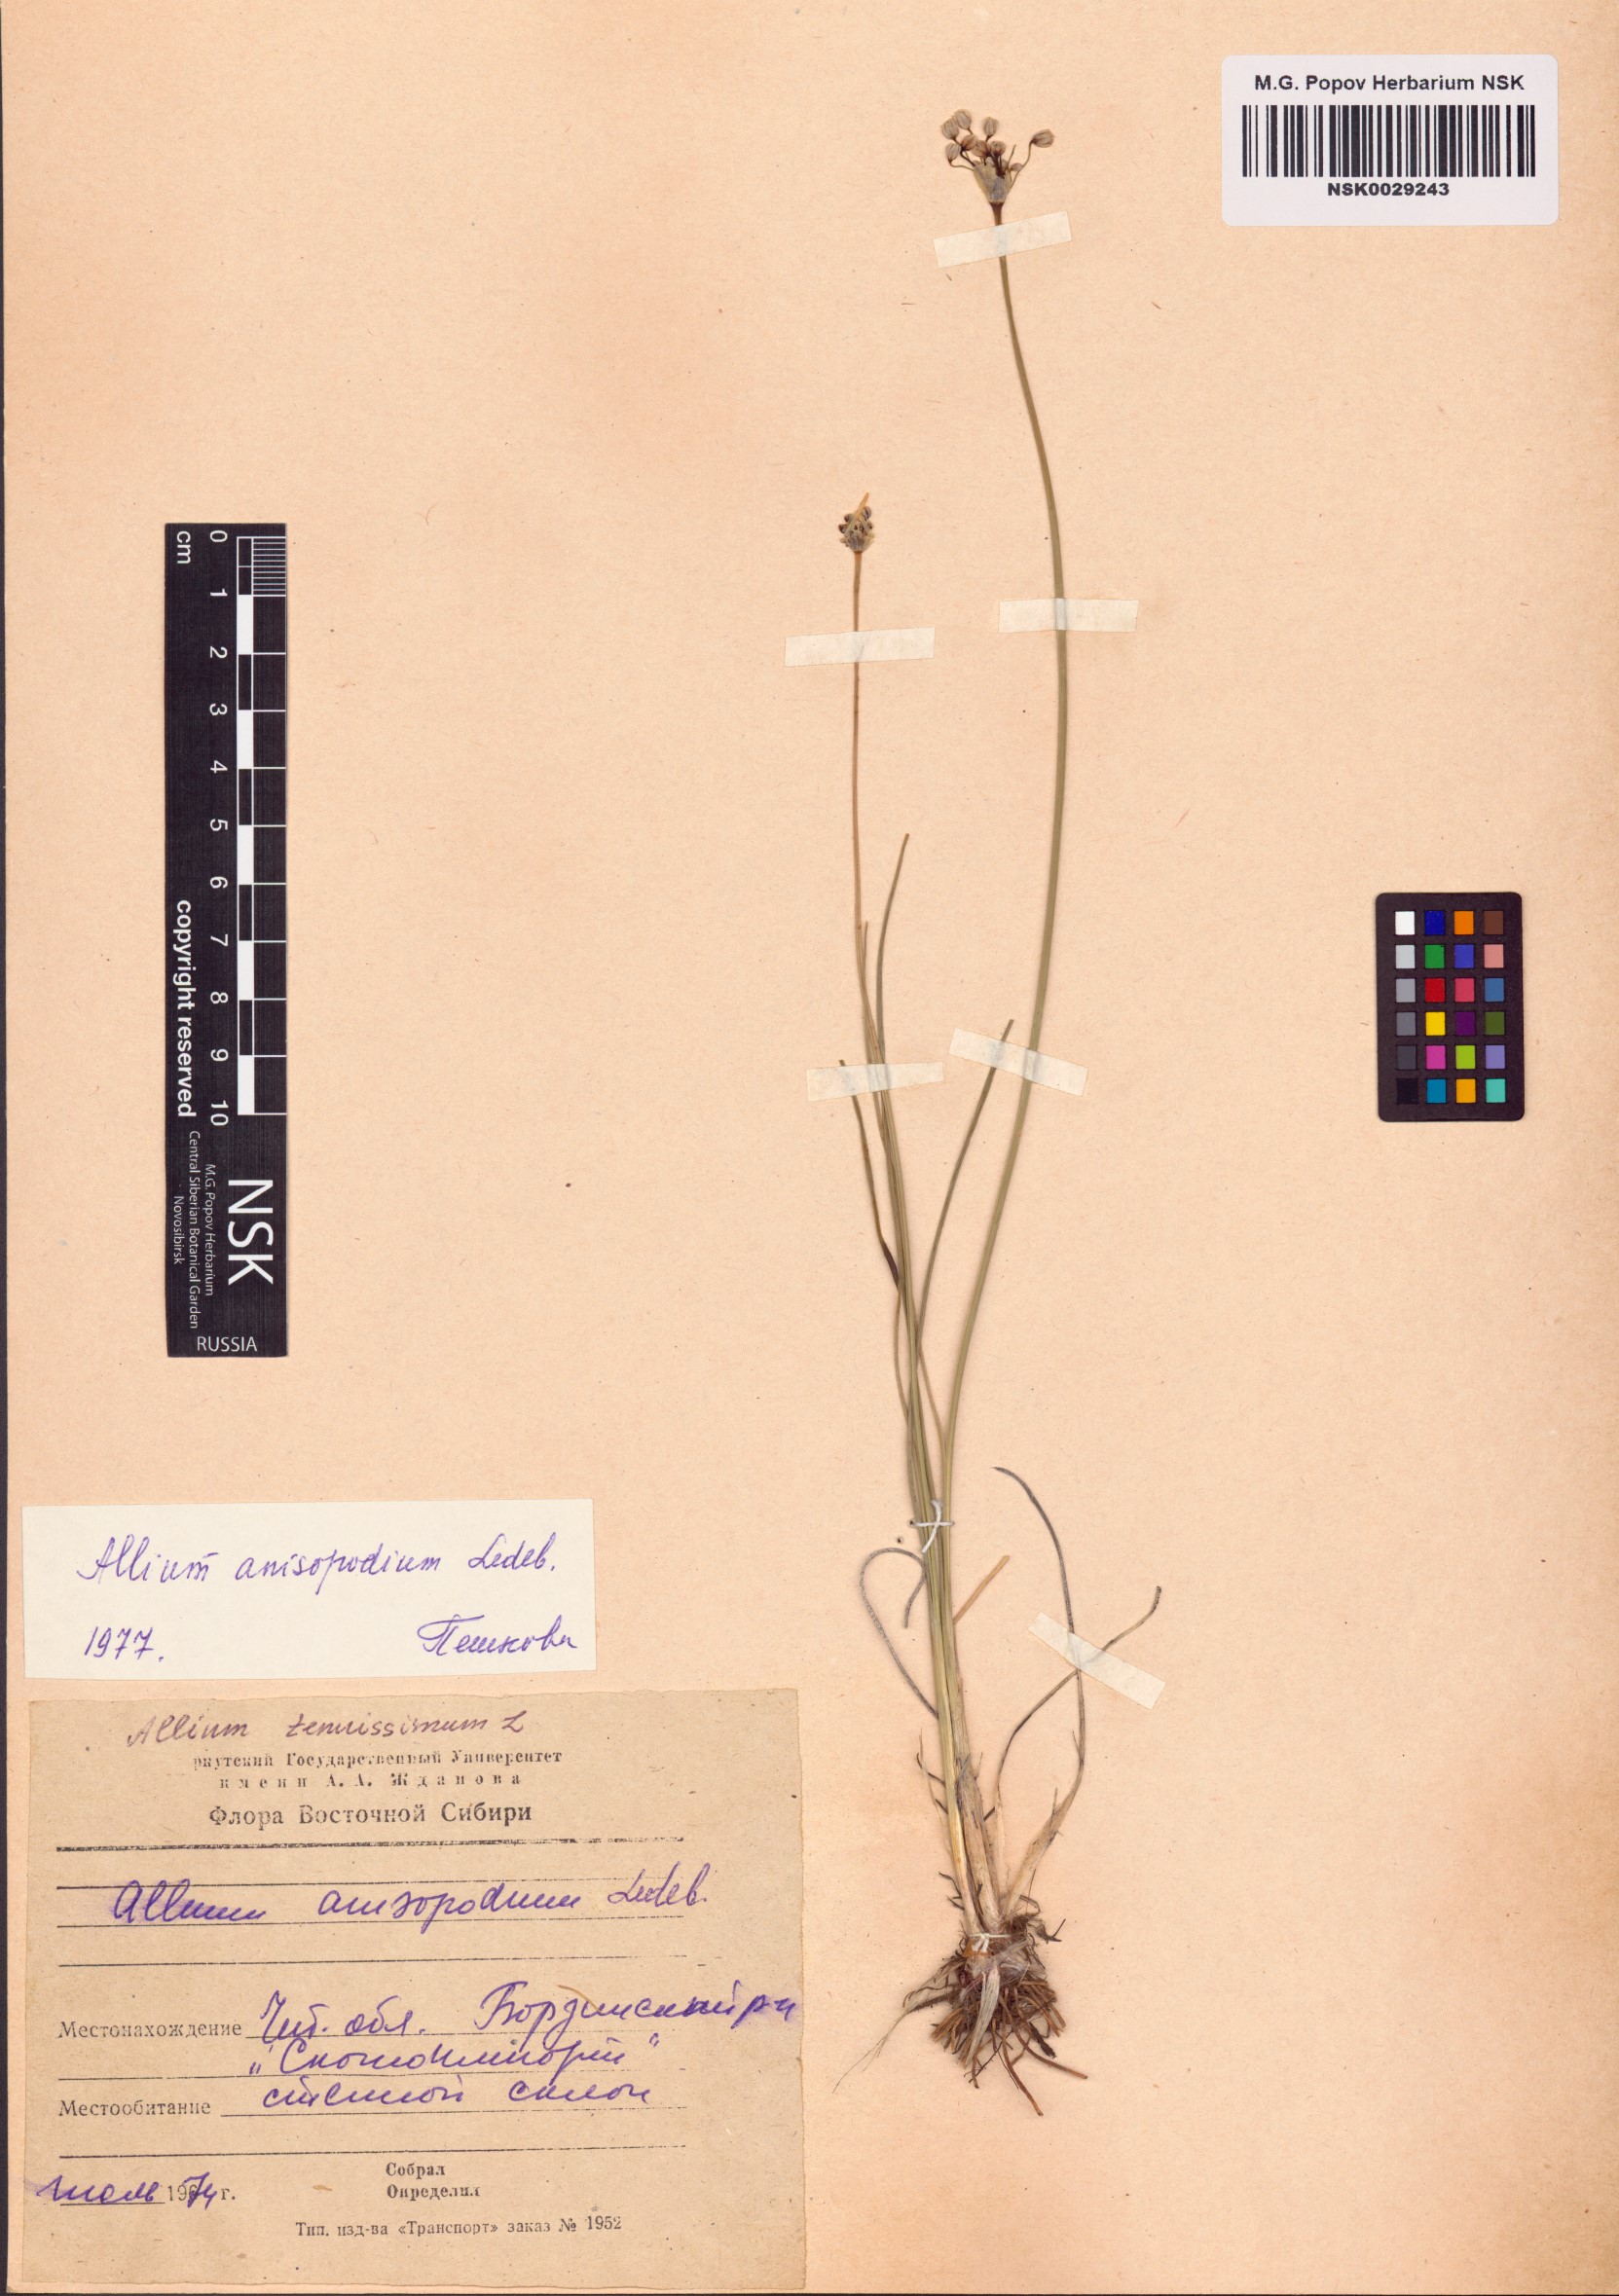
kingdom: Plantae
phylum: Tracheophyta
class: Liliopsida
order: Asparagales
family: Amaryllidaceae
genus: Allium
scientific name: Allium anisopodium
